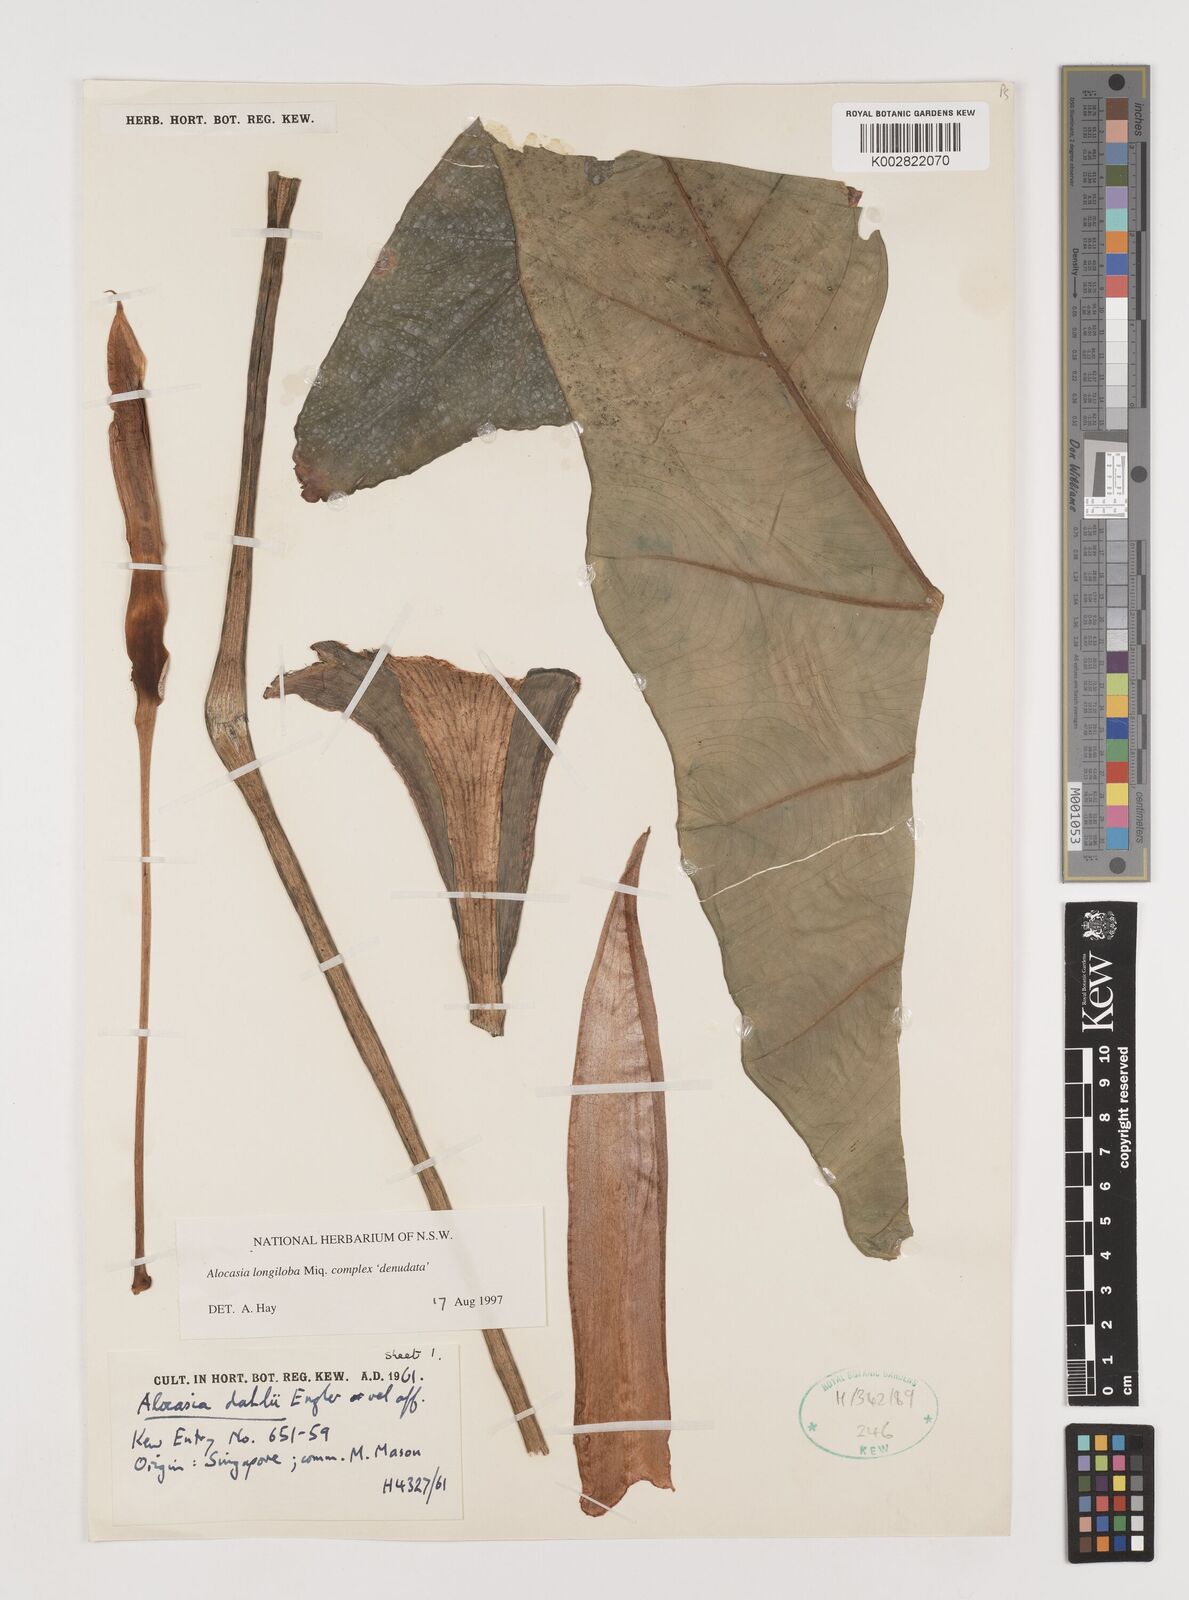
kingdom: Plantae
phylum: Tracheophyta
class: Liliopsida
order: Alismatales
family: Araceae
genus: Alocasia
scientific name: Alocasia longiloba
